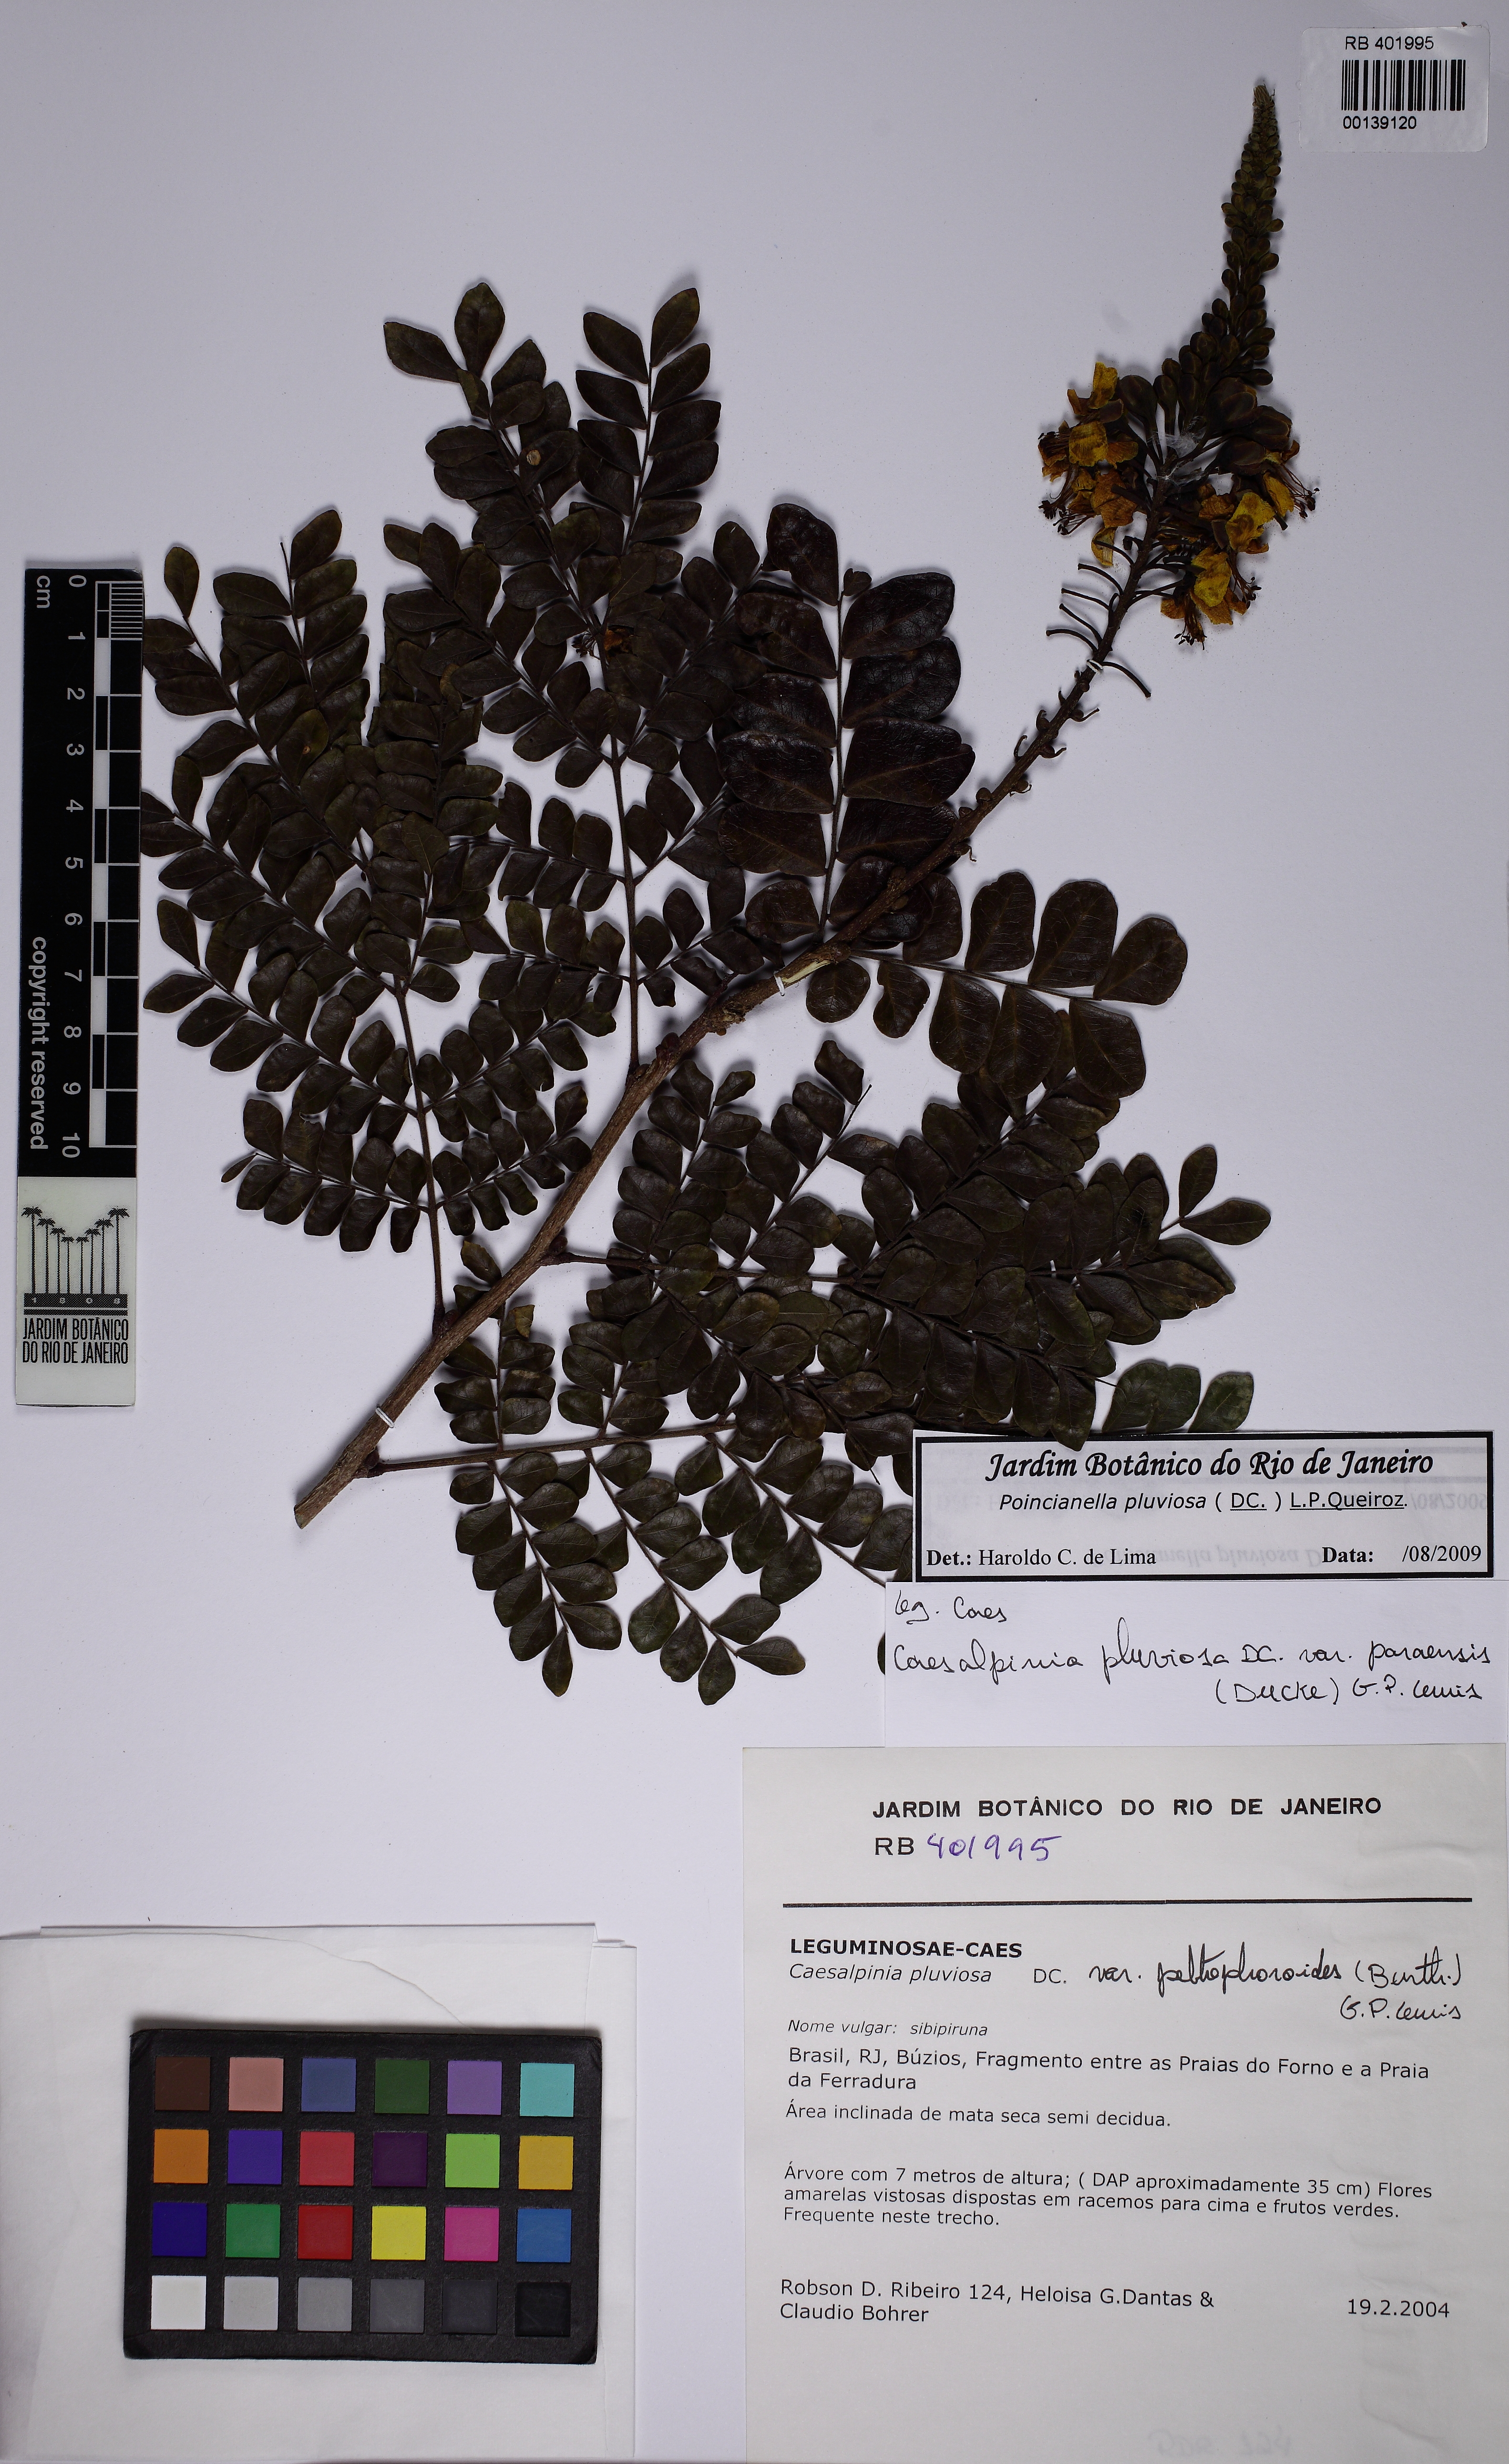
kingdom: Plantae
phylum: Tracheophyta
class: Magnoliopsida
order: Fabales
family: Fabaceae
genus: Cenostigma
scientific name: Cenostigma pluviosum
